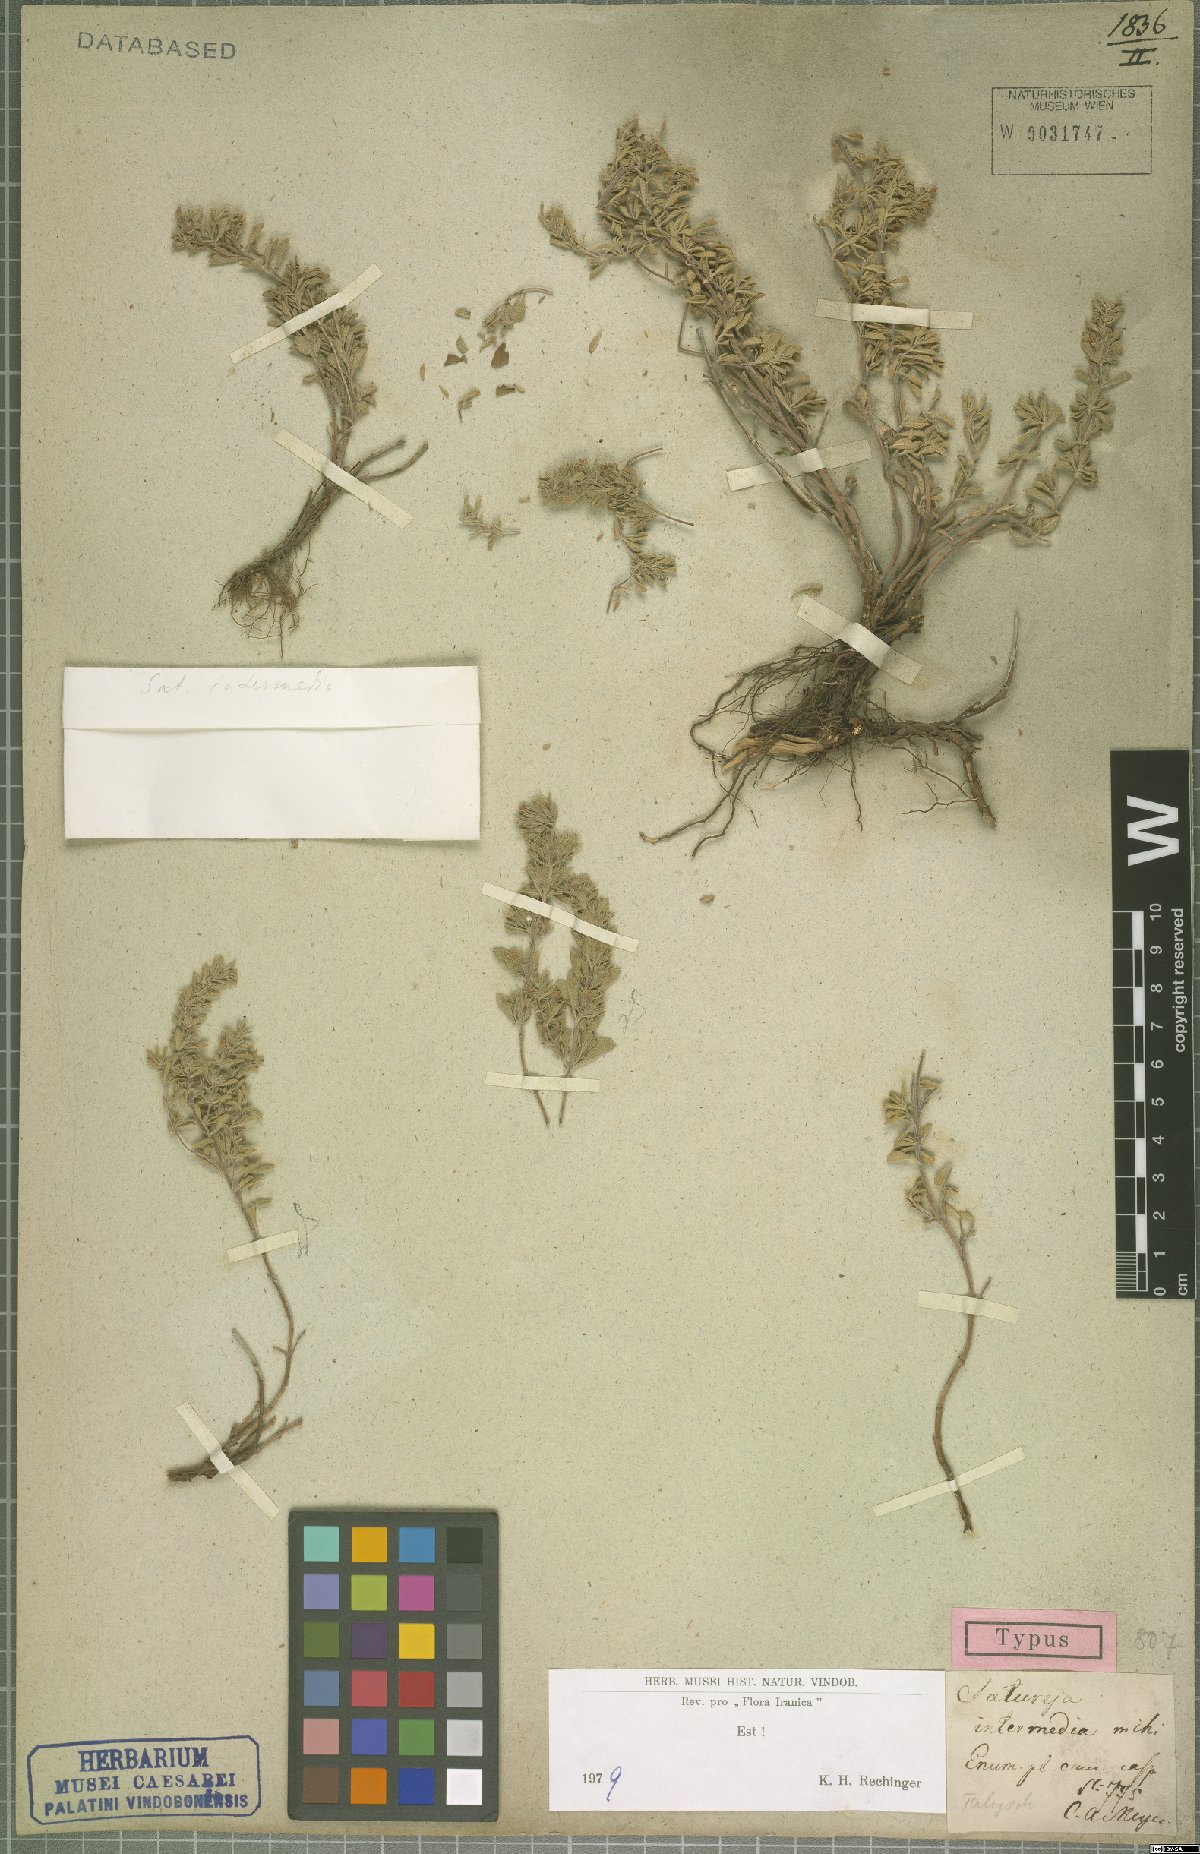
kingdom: Plantae
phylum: Tracheophyta
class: Magnoliopsida
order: Lamiales
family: Lamiaceae
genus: Satureja
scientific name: Satureja intermedia
